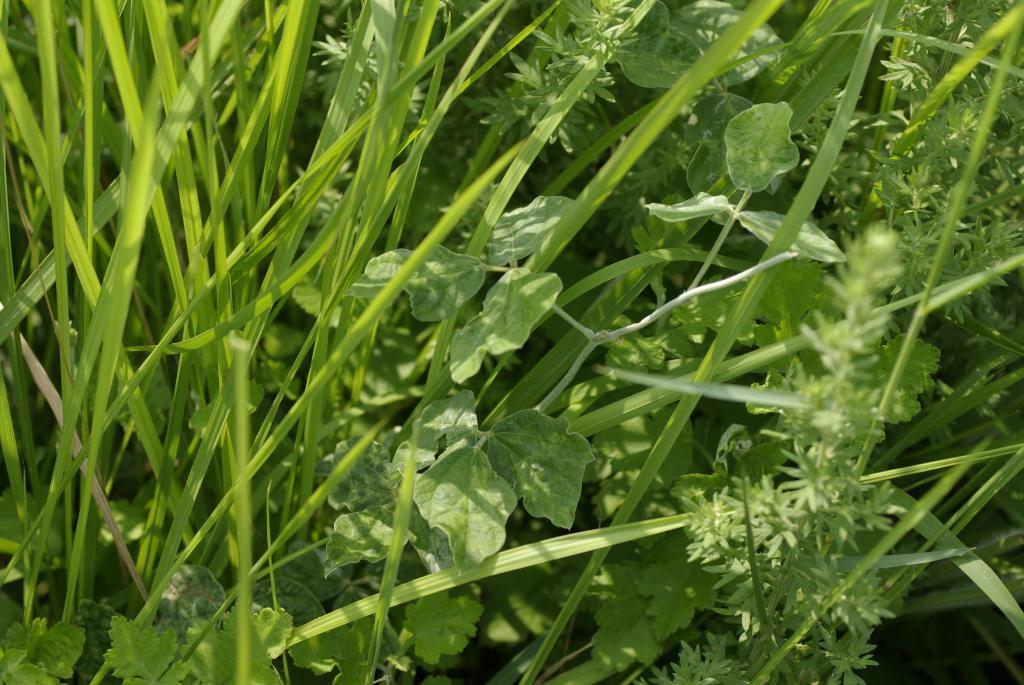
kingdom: Plantae
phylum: Tracheophyta
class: Magnoliopsida
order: Fabales
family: Fabaceae
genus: Macroptilium
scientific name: Macroptilium atropurpureum
